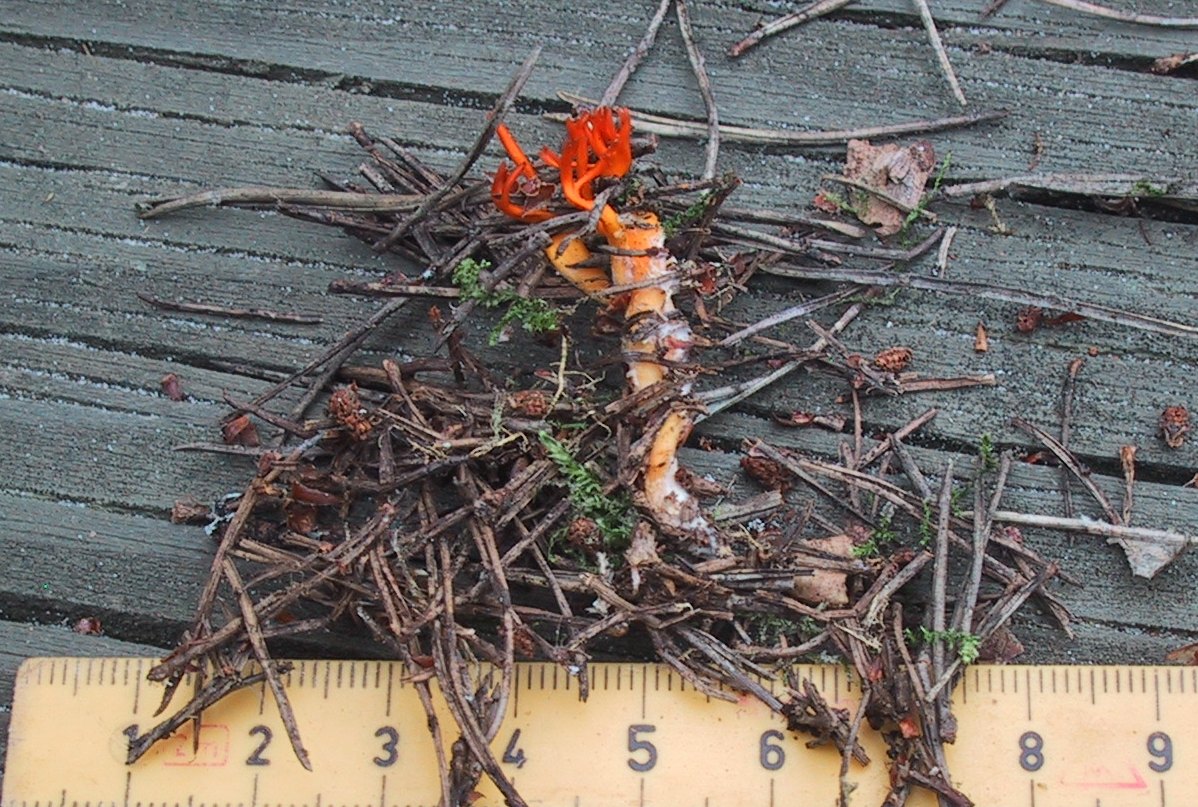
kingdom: Fungi
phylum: Basidiomycota
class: Dacrymycetes
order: Dacrymycetales
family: Dacrymycetaceae
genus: Calocera
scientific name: Calocera viscosa
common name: almindelig guldgaffel
